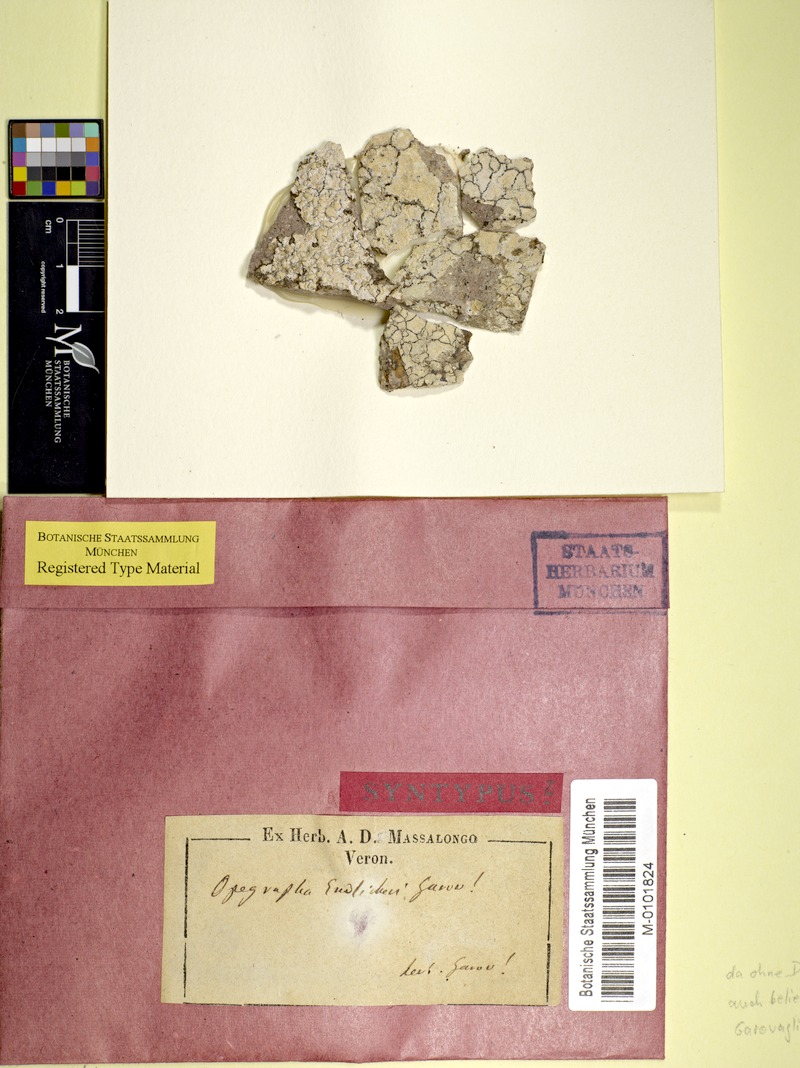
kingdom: Fungi
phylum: Ascomycota
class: Arthoniomycetes
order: Arthoniales
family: Opegraphaceae
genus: Sparria
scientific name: Sparria endlicheri
